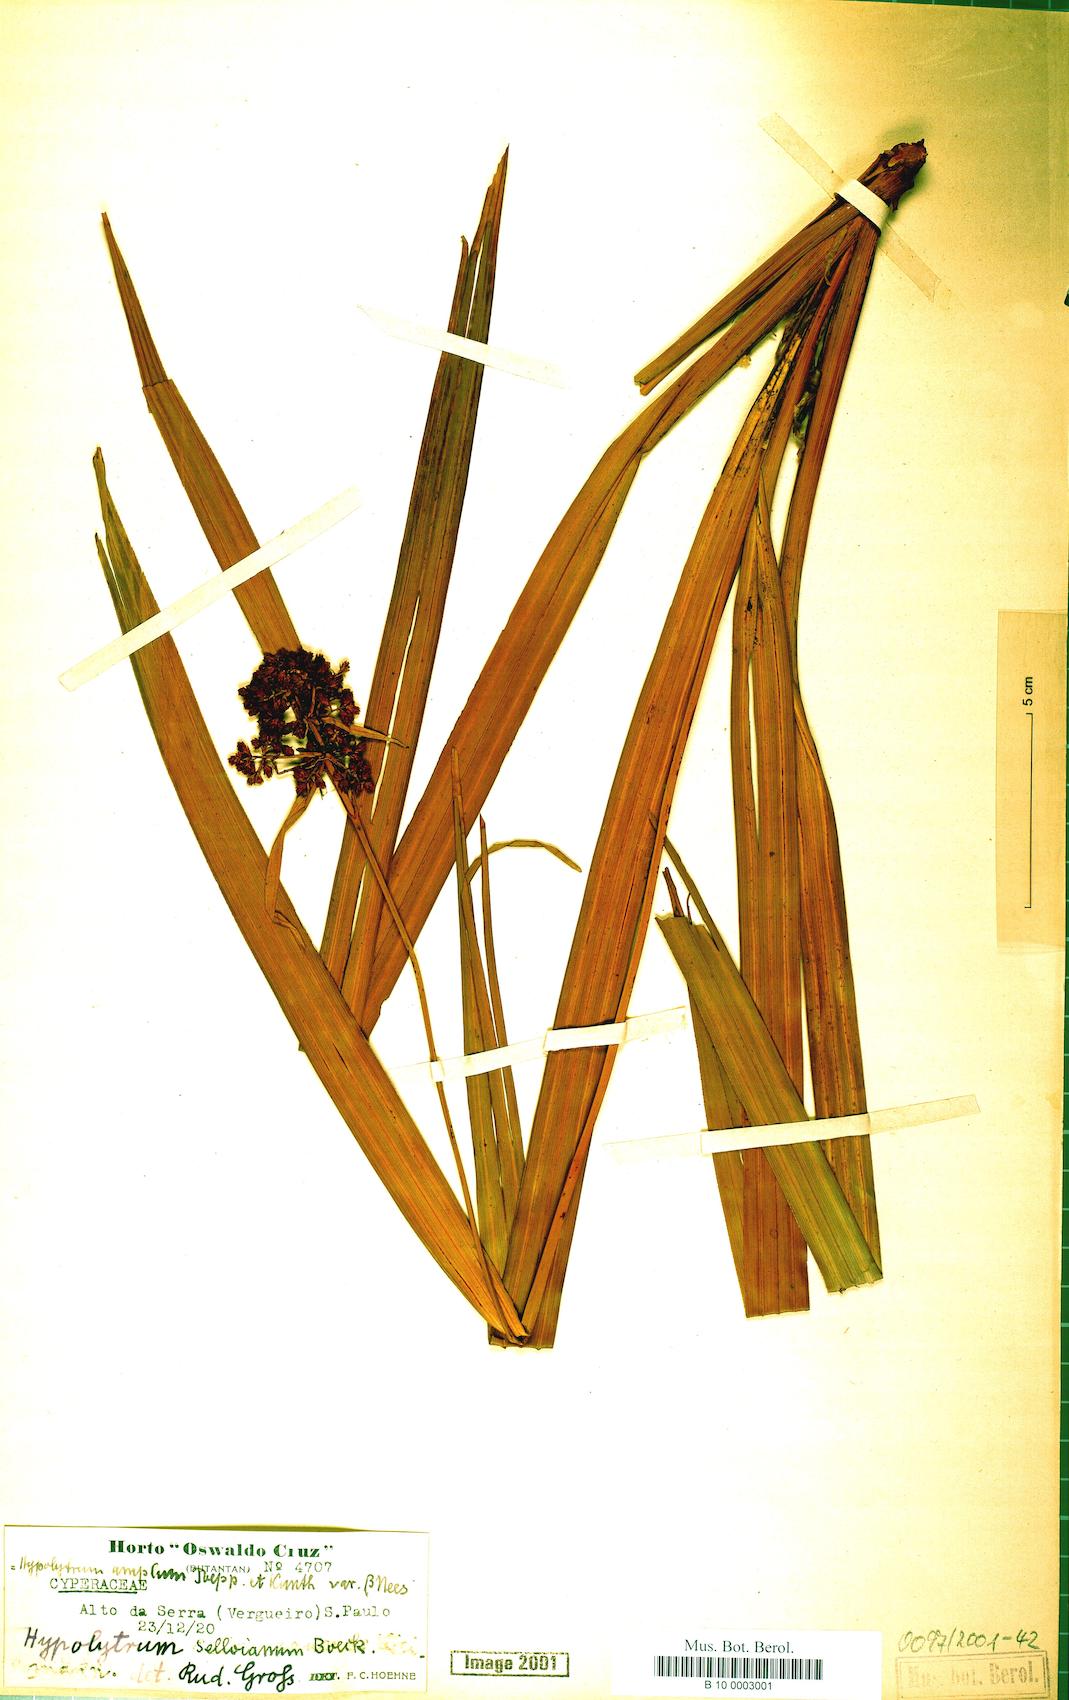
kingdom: Plantae
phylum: Tracheophyta
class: Liliopsida
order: Poales
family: Cyperaceae
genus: Hypolytrum
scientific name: Hypolytrum schraderianum
